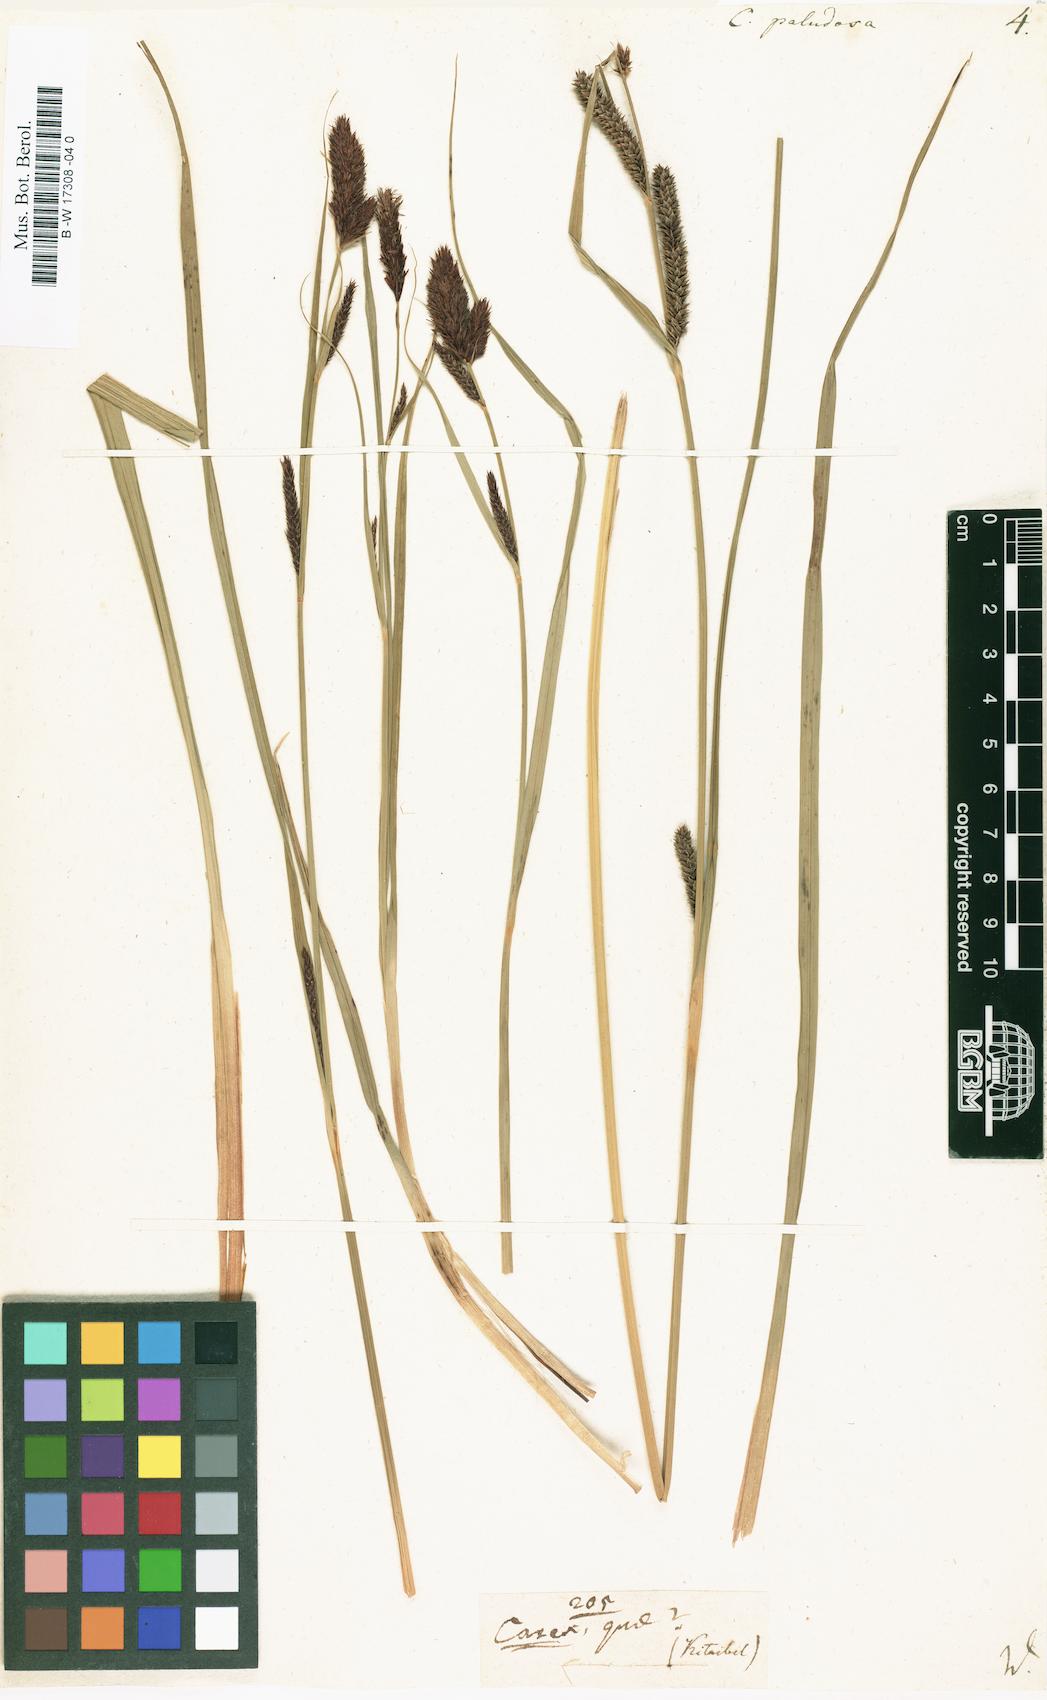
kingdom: Plantae
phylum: Tracheophyta
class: Liliopsida
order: Poales
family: Cyperaceae
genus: Carex
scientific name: Carex acutiformis
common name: Lesser pond-sedge
